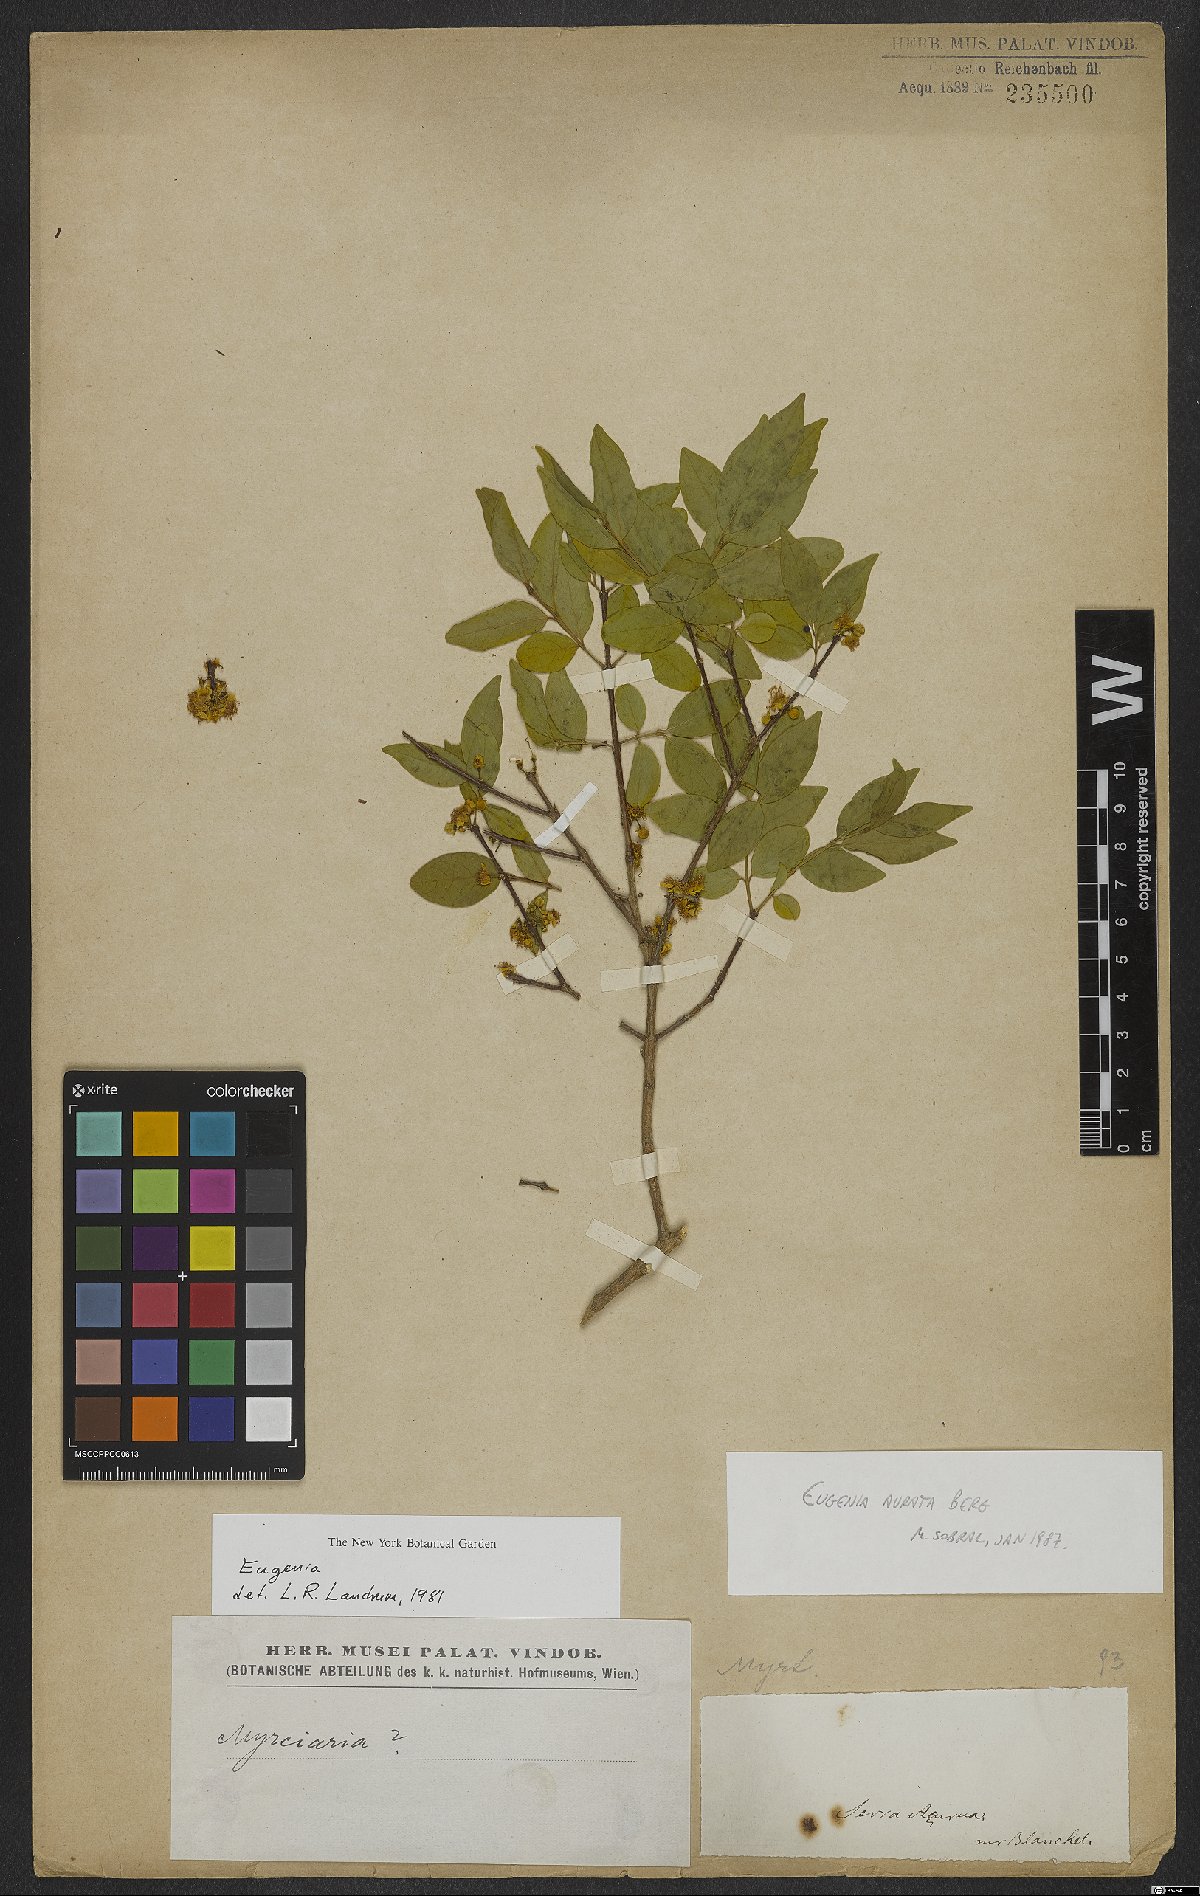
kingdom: Plantae
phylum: Tracheophyta
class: Magnoliopsida
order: Myrtales
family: Myrtaceae
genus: Eugenia
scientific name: Eugenia aurata
